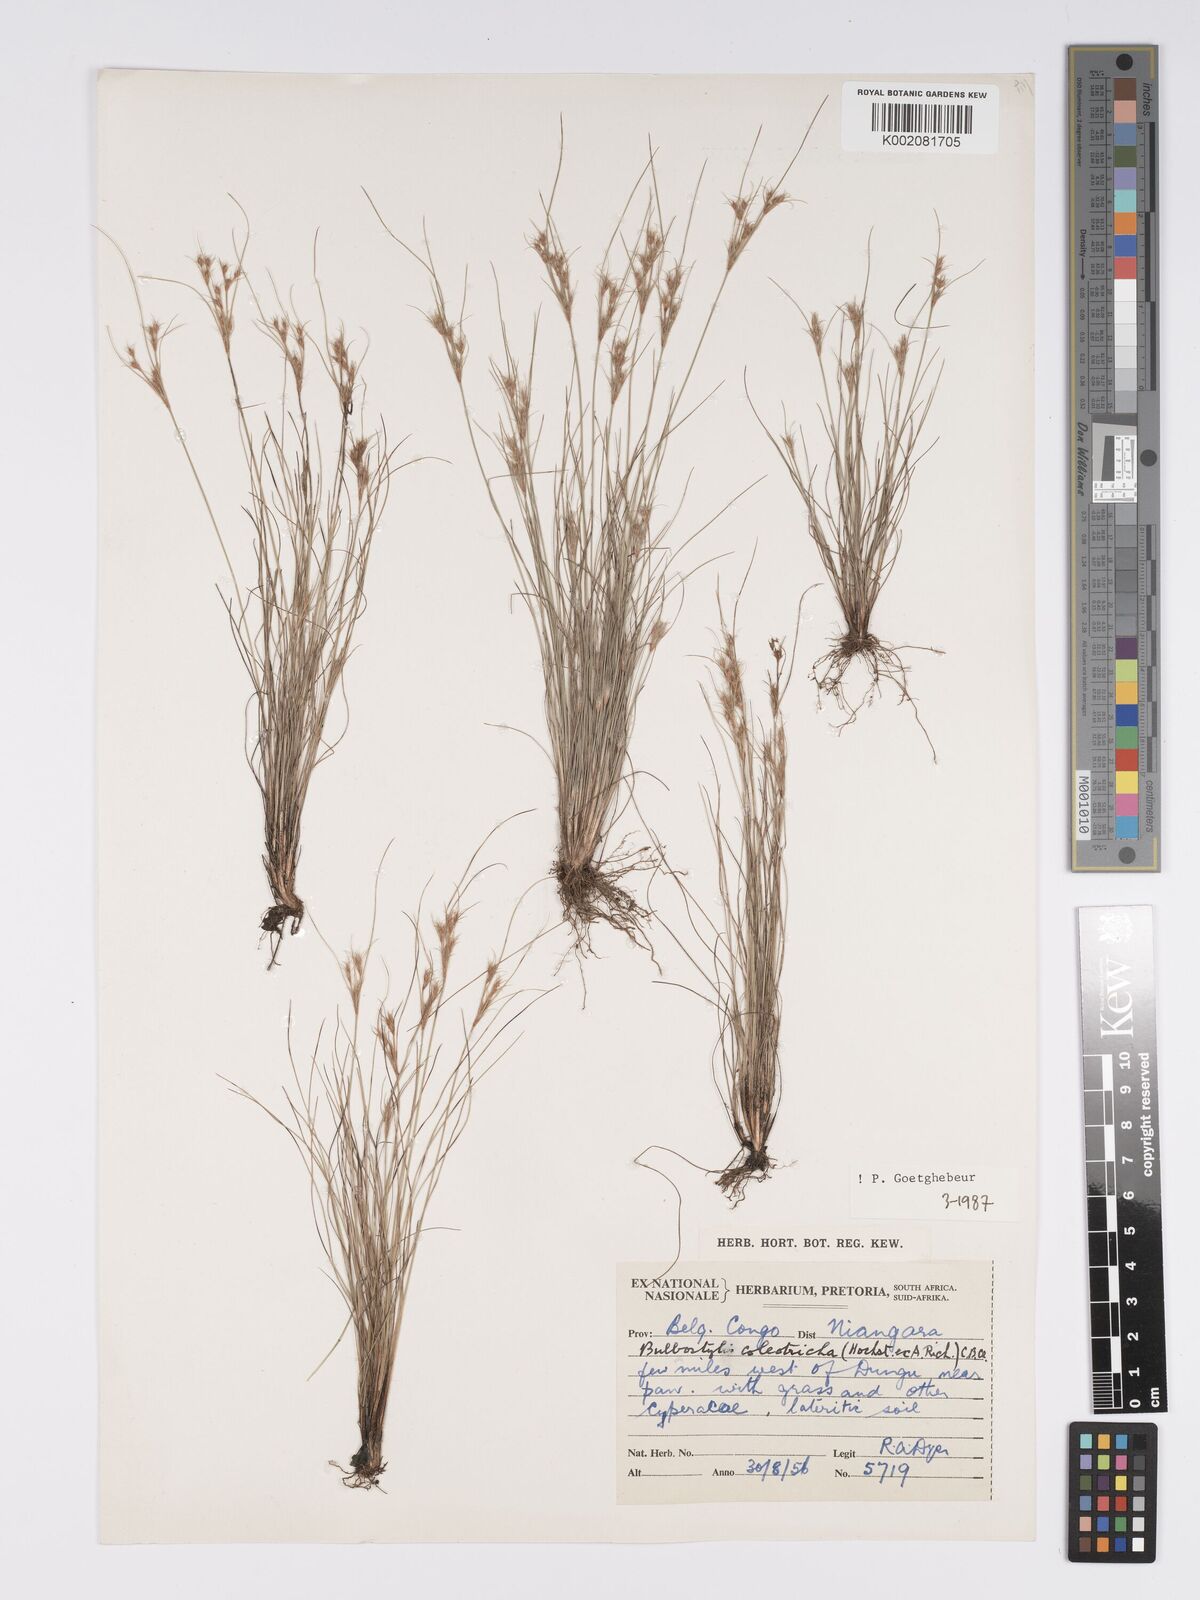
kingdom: Plantae
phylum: Tracheophyta
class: Liliopsida
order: Poales
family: Cyperaceae
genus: Bulbostylis
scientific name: Bulbostylis coleotricha
